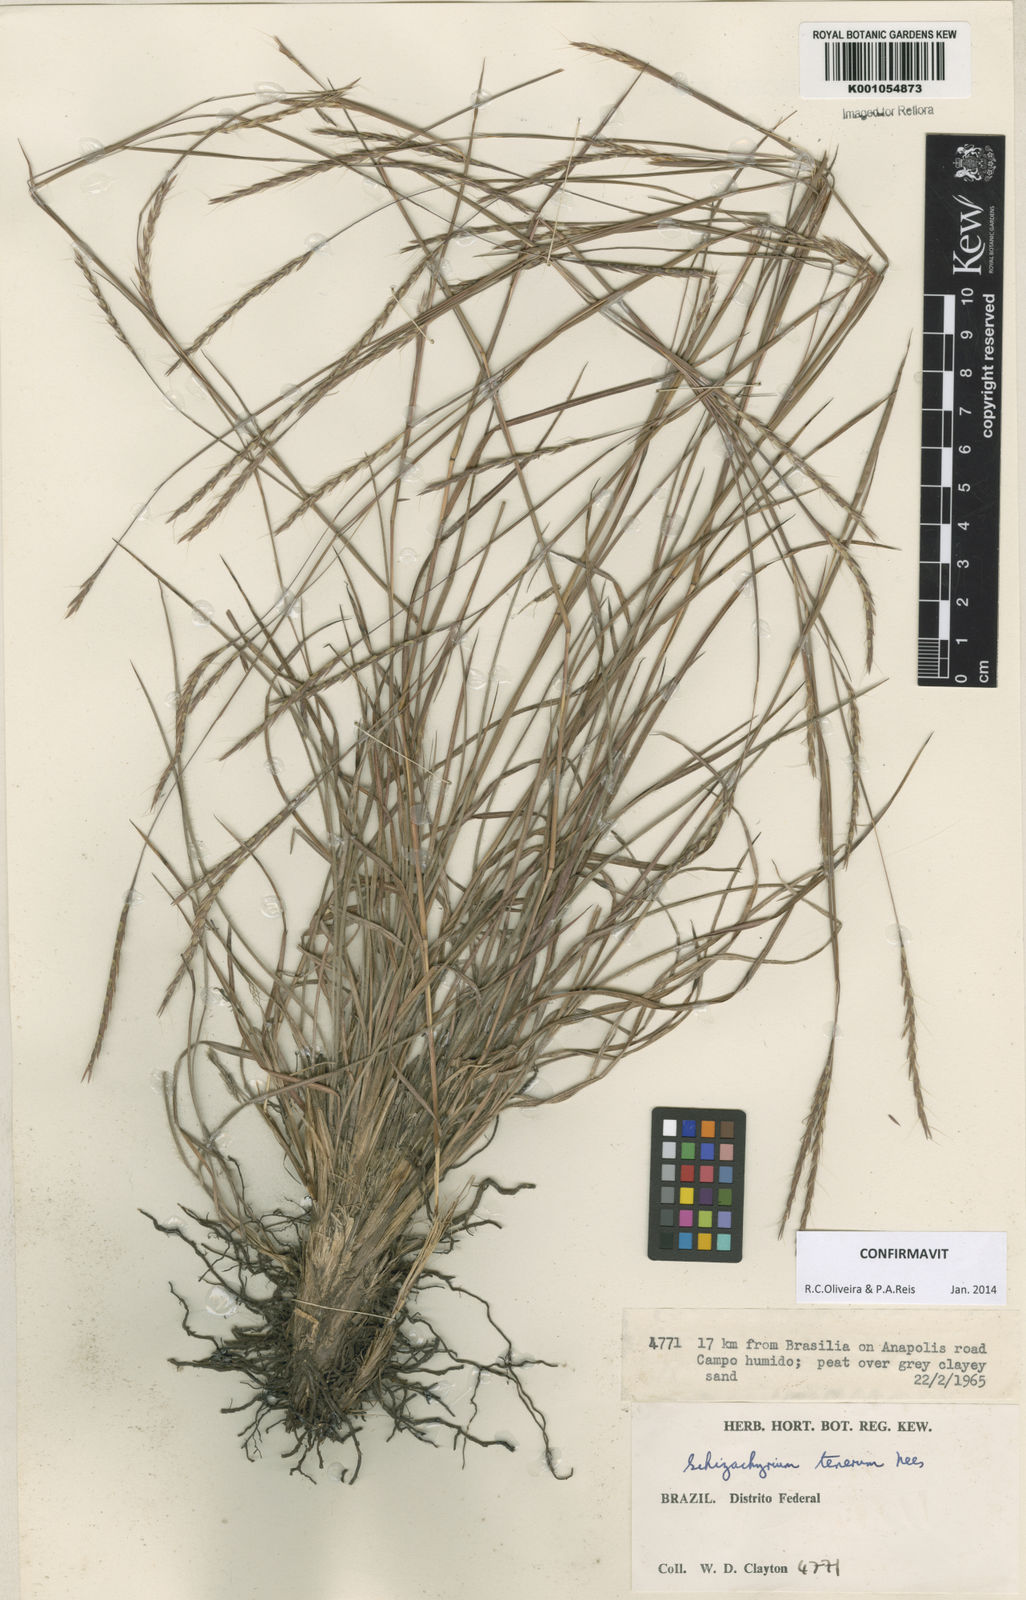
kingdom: Plantae
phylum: Tracheophyta
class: Liliopsida
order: Poales
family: Poaceae
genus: Andropogon
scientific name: Andropogon tener
